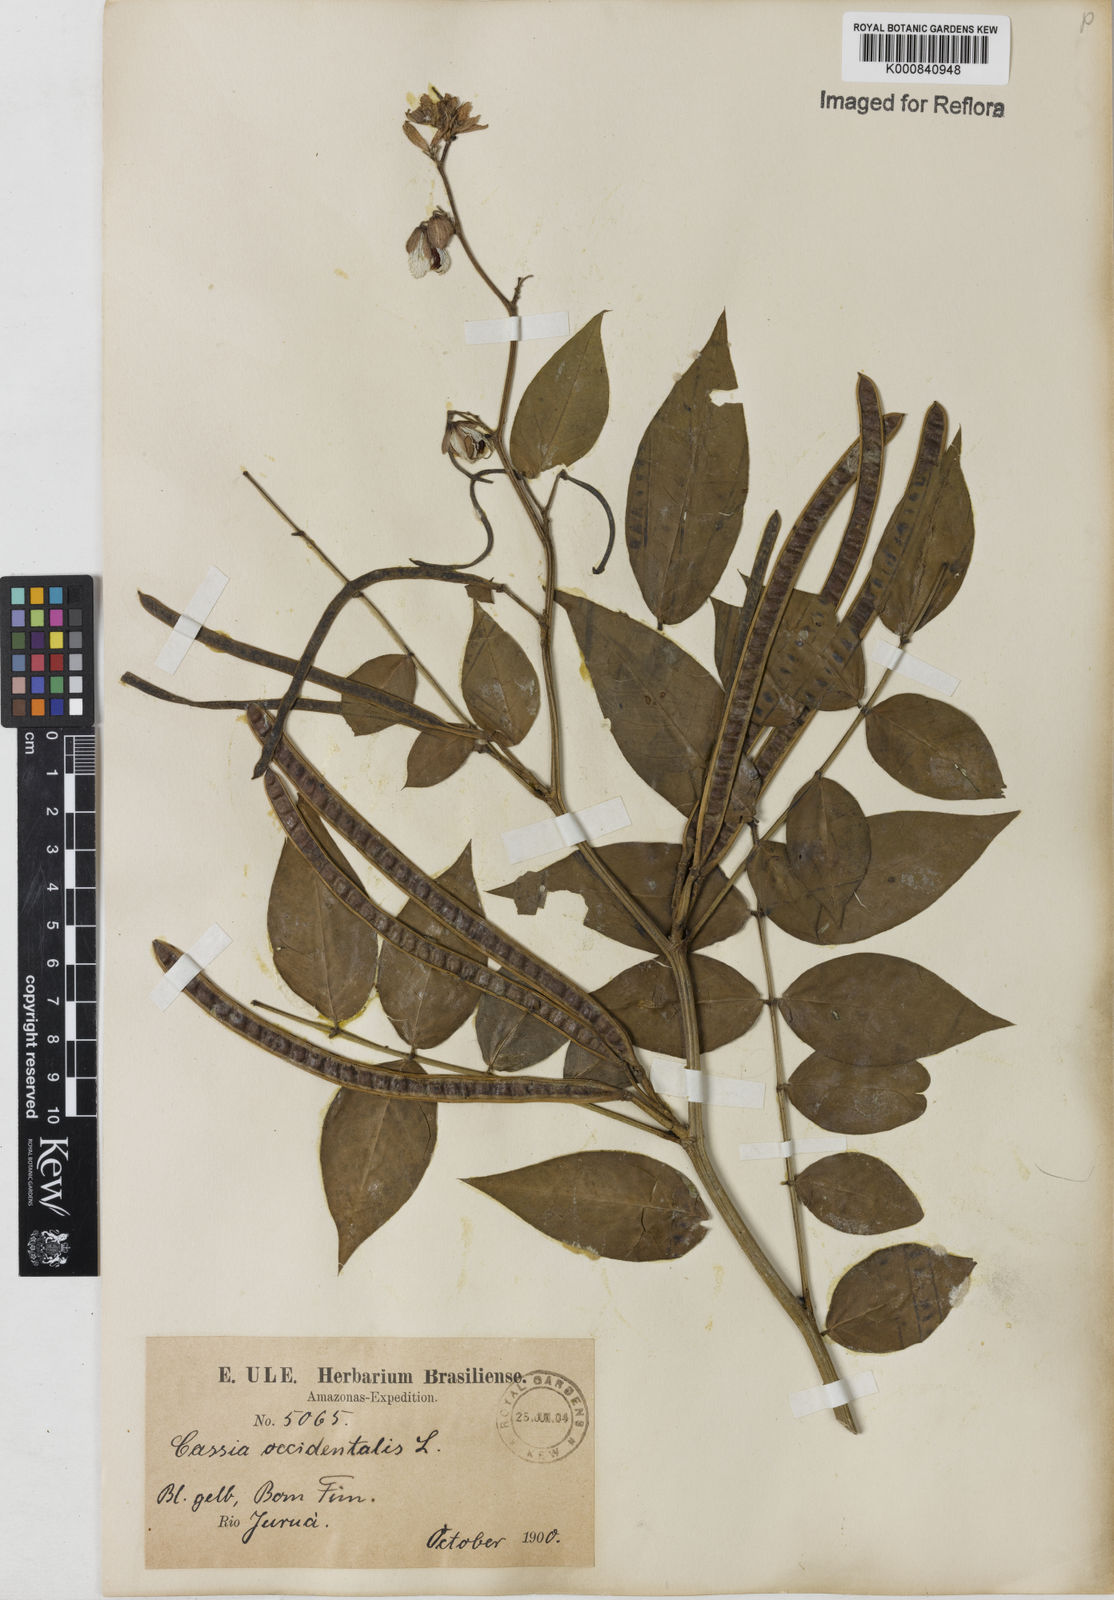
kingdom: Plantae
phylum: Tracheophyta
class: Magnoliopsida
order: Fabales
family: Fabaceae
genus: Senna
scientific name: Senna occidentalis
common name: Septicweed
